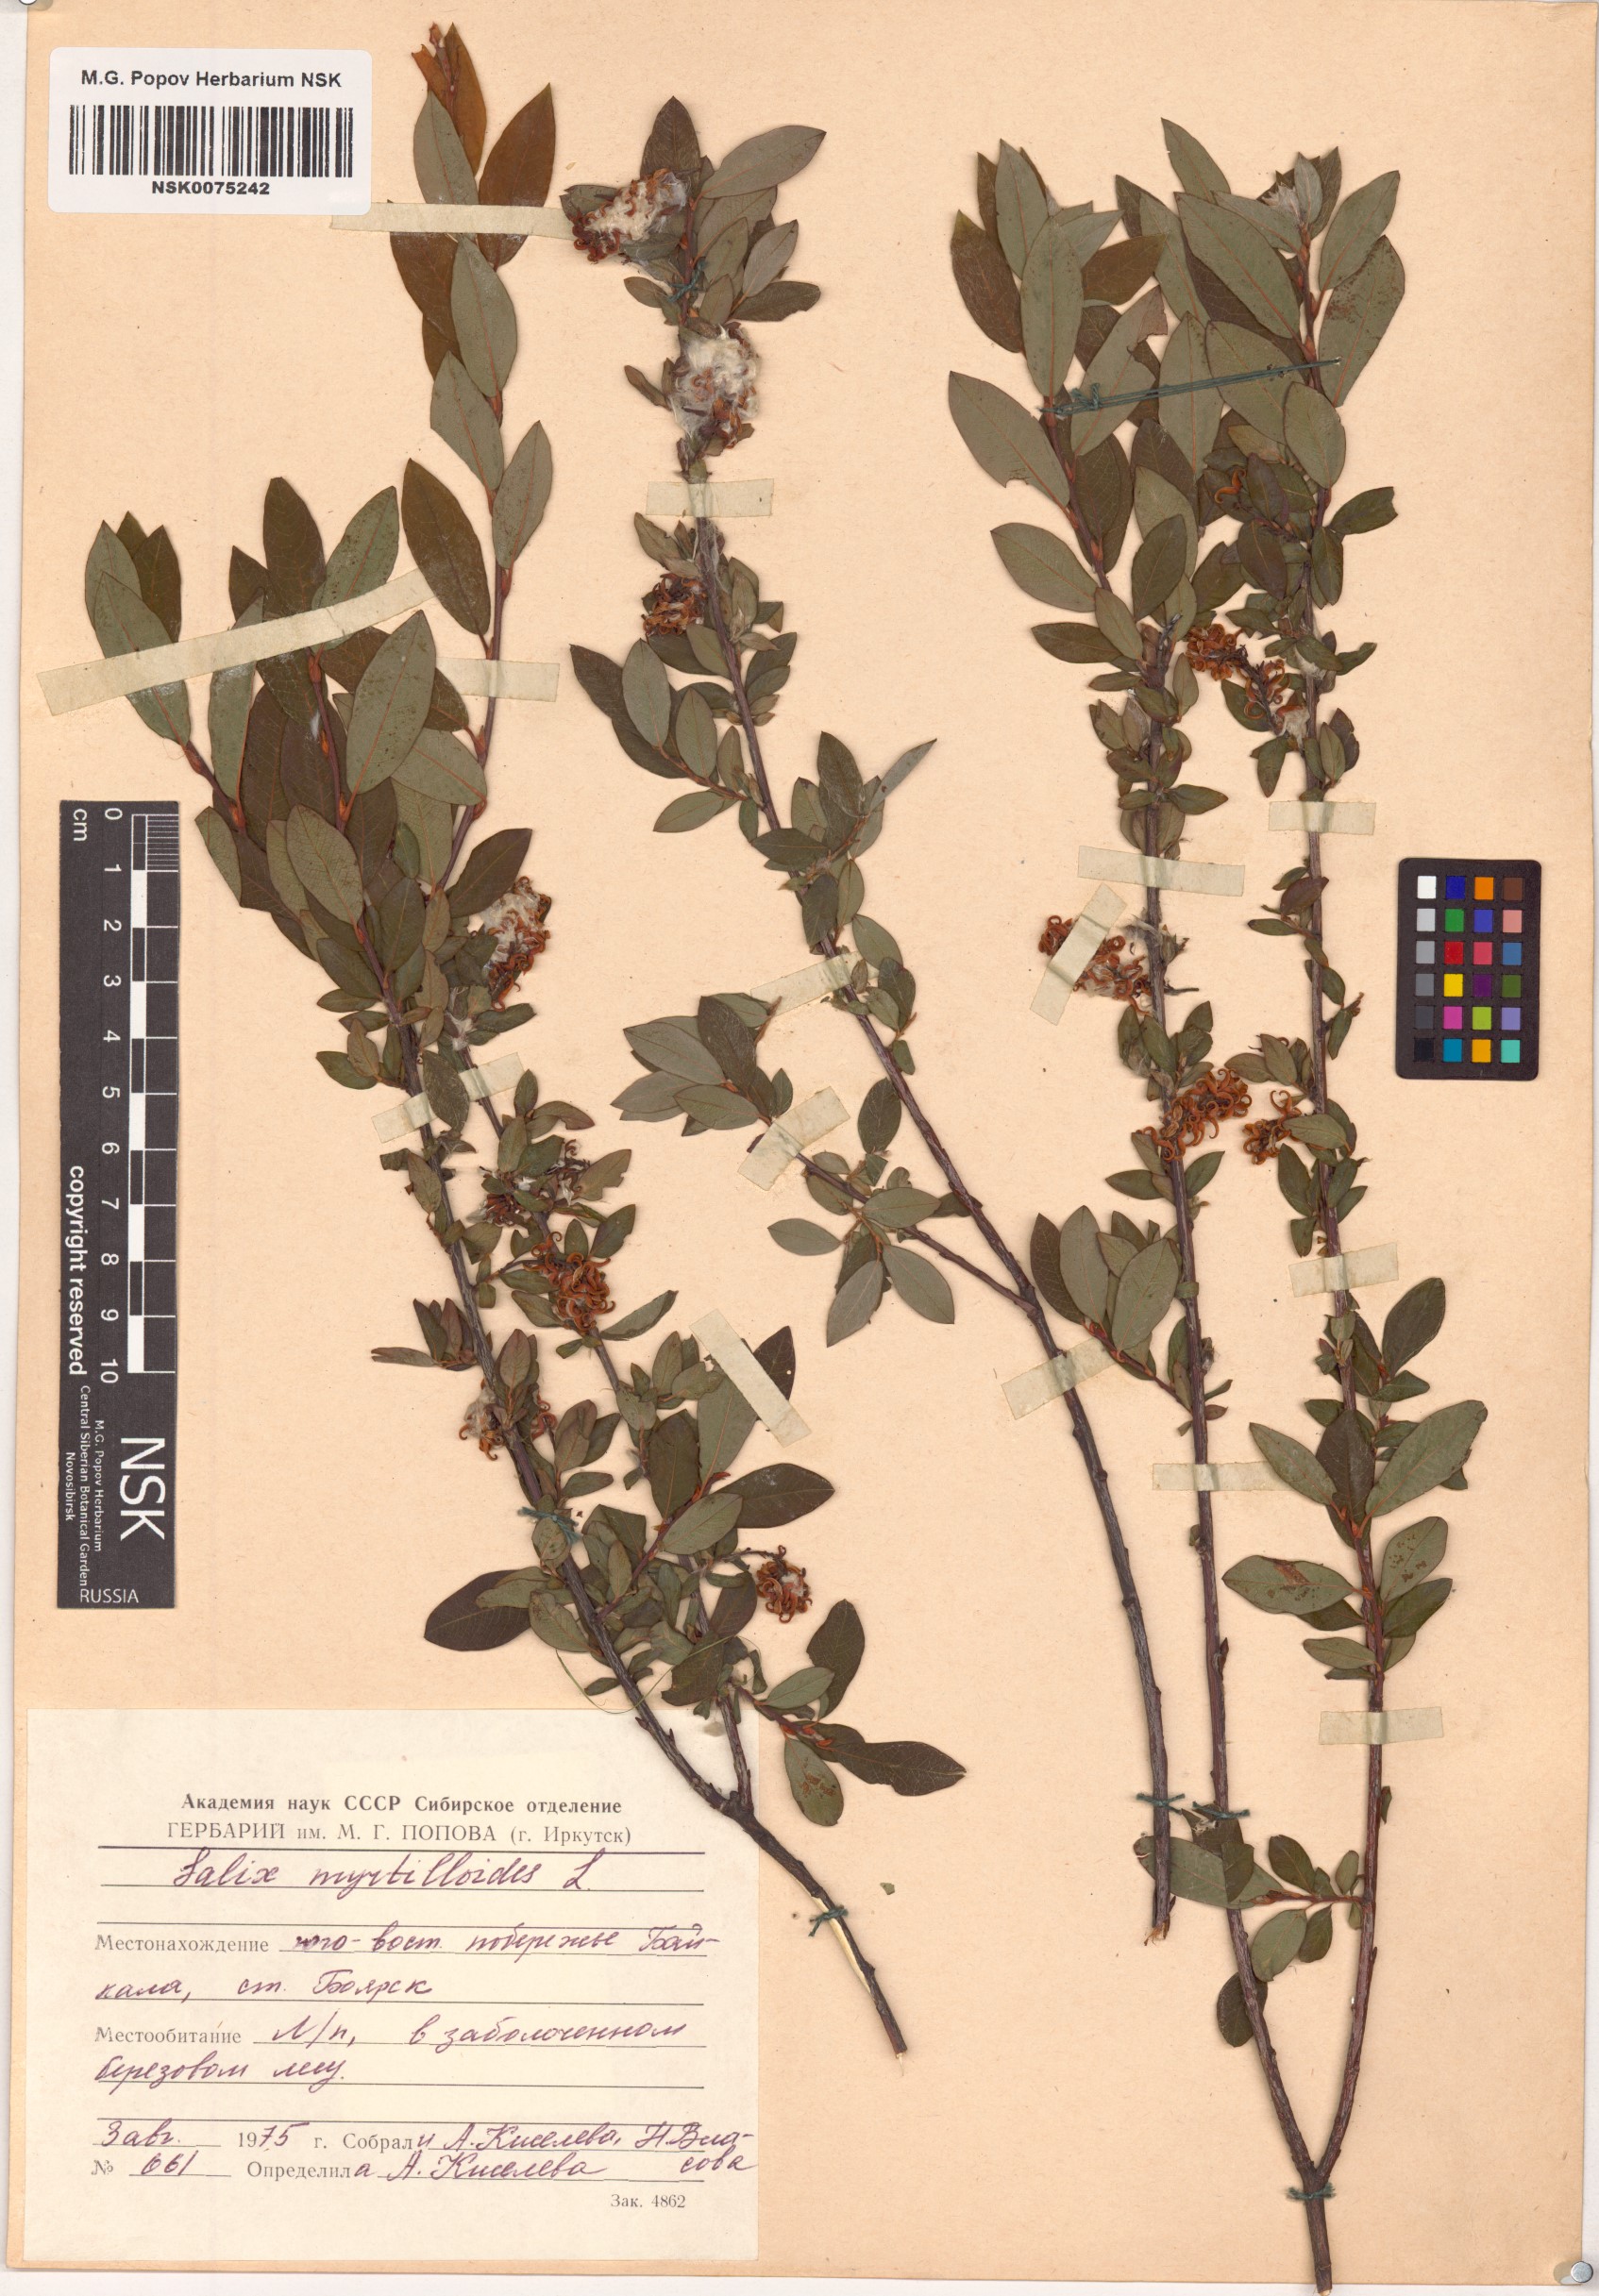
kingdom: Plantae
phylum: Tracheophyta
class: Magnoliopsida
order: Malpighiales
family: Salicaceae
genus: Salix
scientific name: Salix myrtilloides
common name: Myrtle-leaved willow
